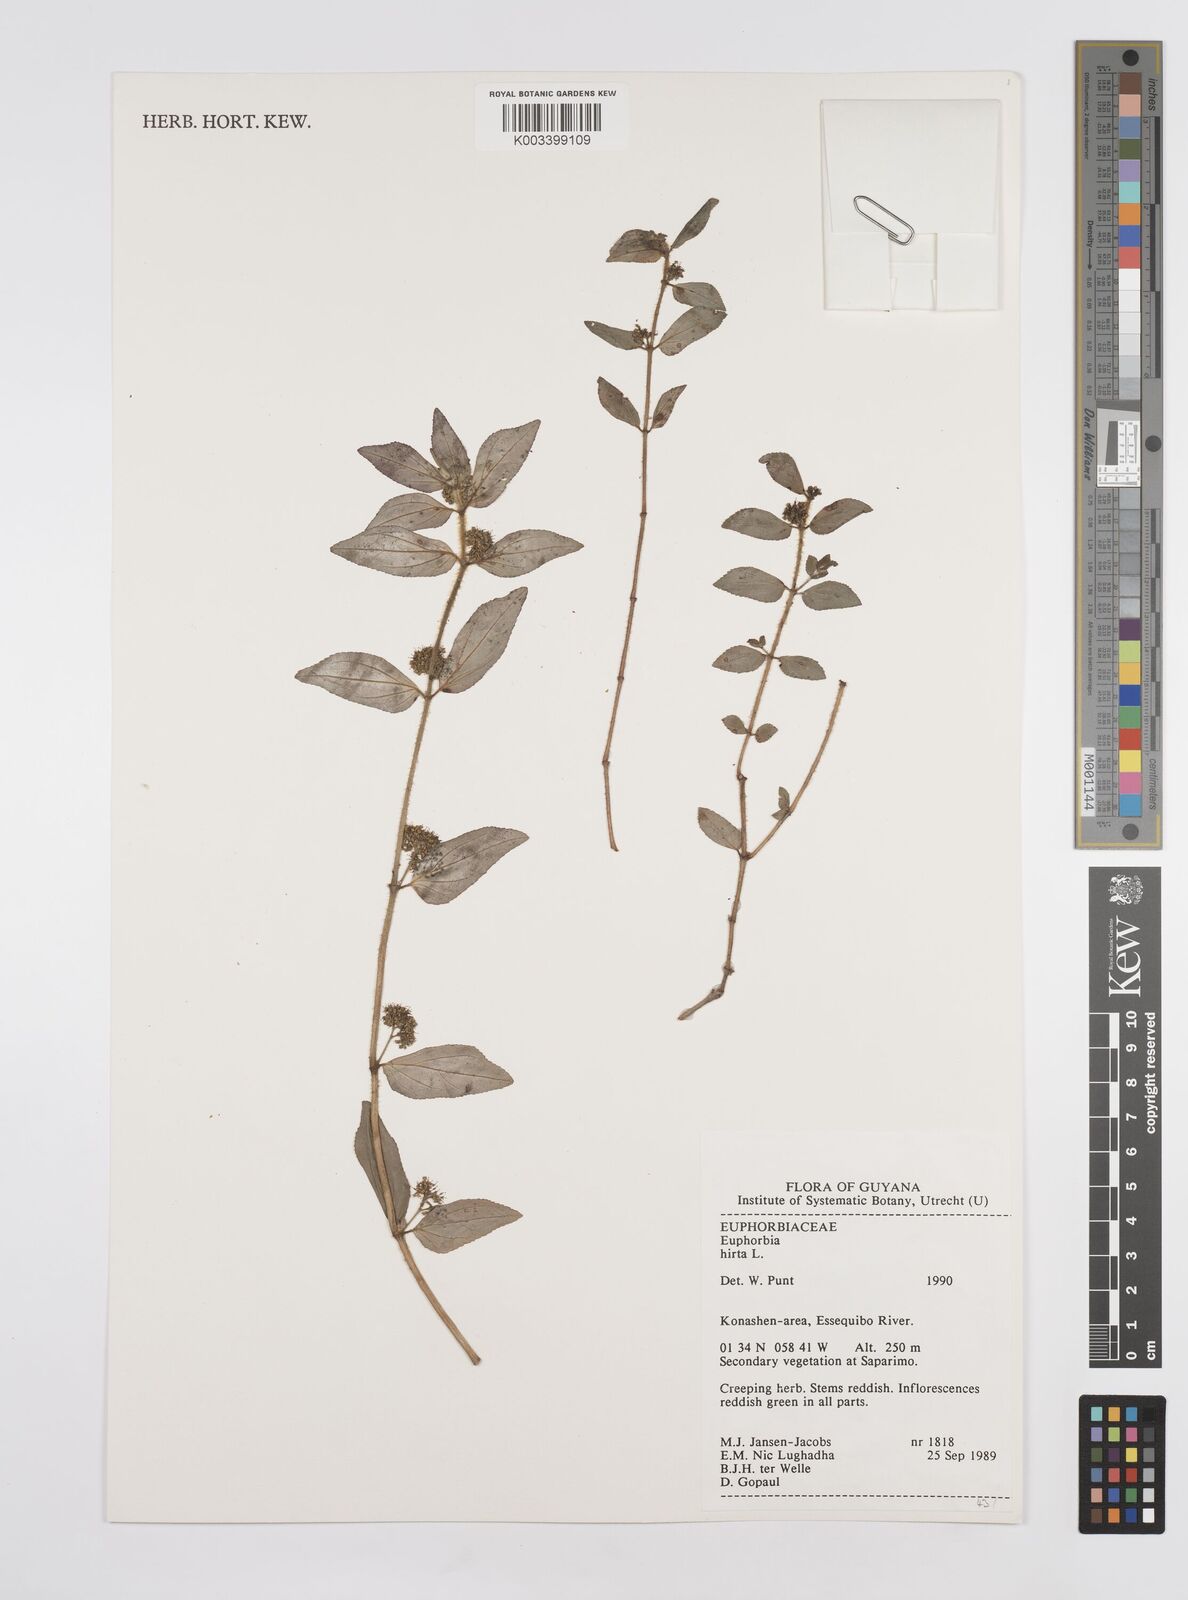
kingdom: Plantae
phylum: Tracheophyta
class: Magnoliopsida
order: Malpighiales
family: Euphorbiaceae
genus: Euphorbia
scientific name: Euphorbia hirta
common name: Pillpod sandmat
